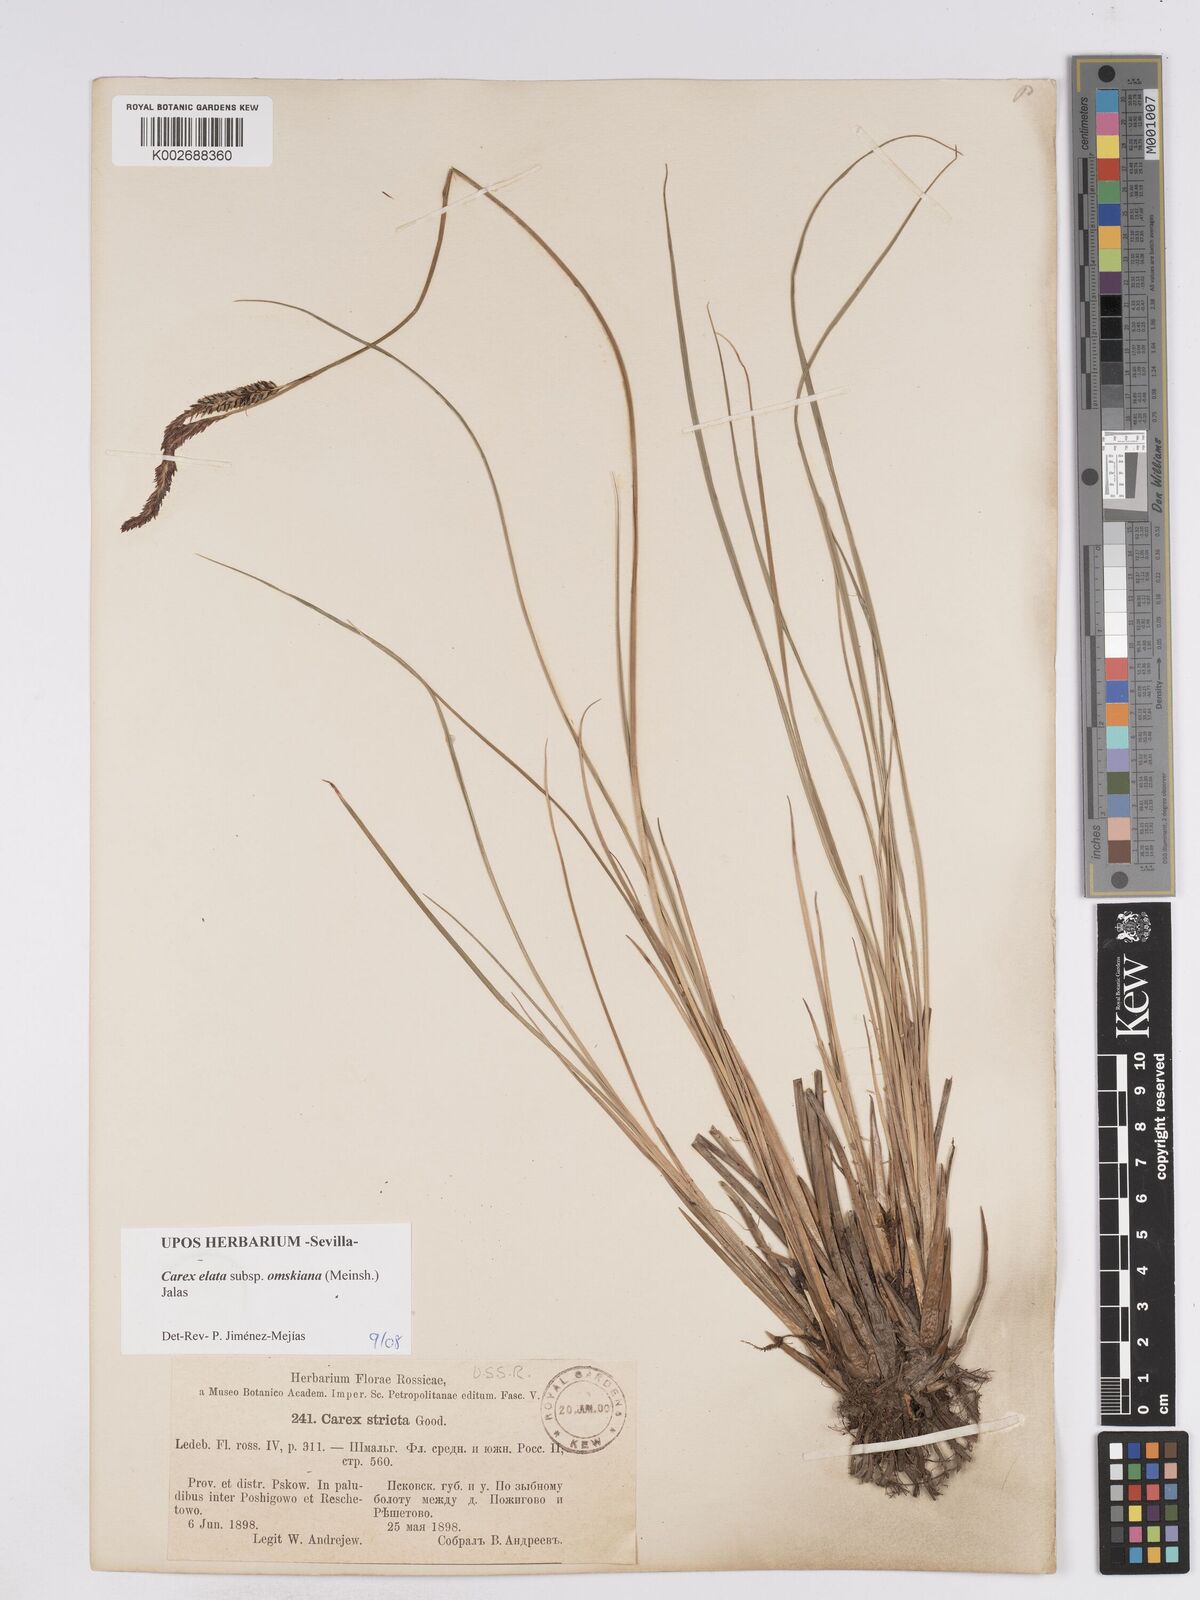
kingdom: Plantae
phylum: Tracheophyta
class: Liliopsida
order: Poales
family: Cyperaceae
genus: Carex
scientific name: Carex elata
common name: Tufted sedge
